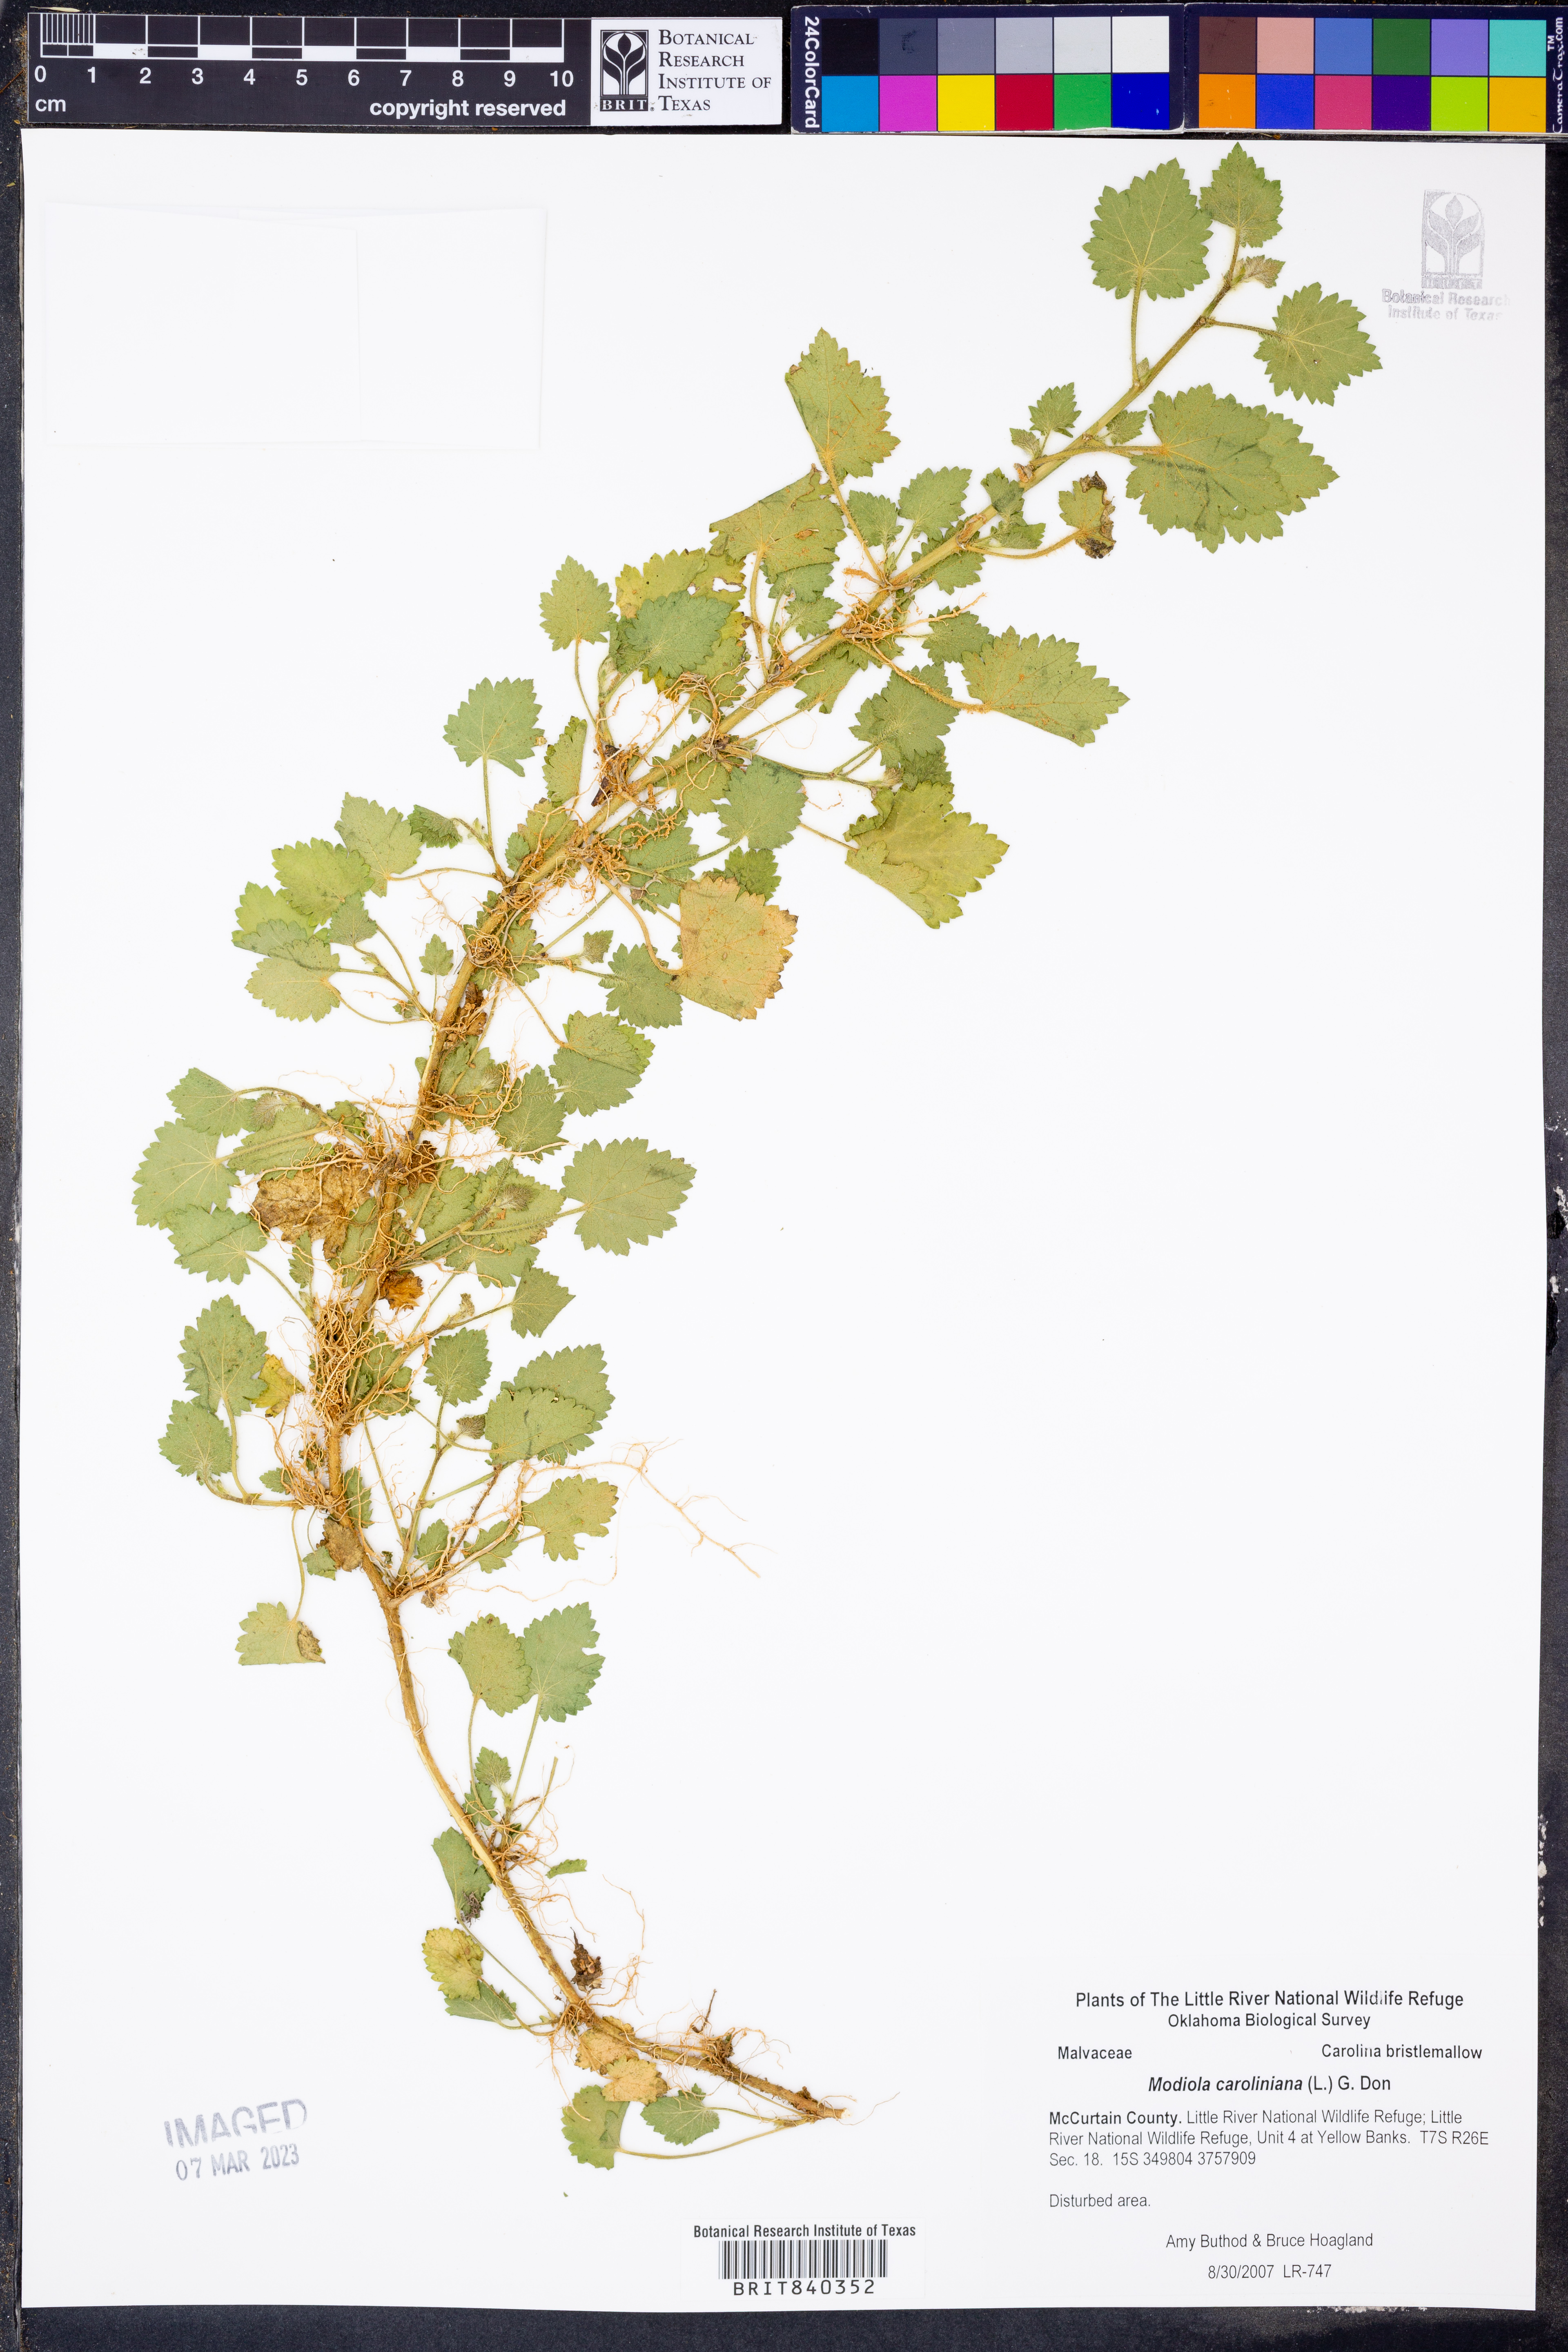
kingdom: Plantae
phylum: Tracheophyta
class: Magnoliopsida
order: Malvales
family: Malvaceae
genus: Modiola
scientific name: Modiola caroliniana
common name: Carolina bristlemallow
